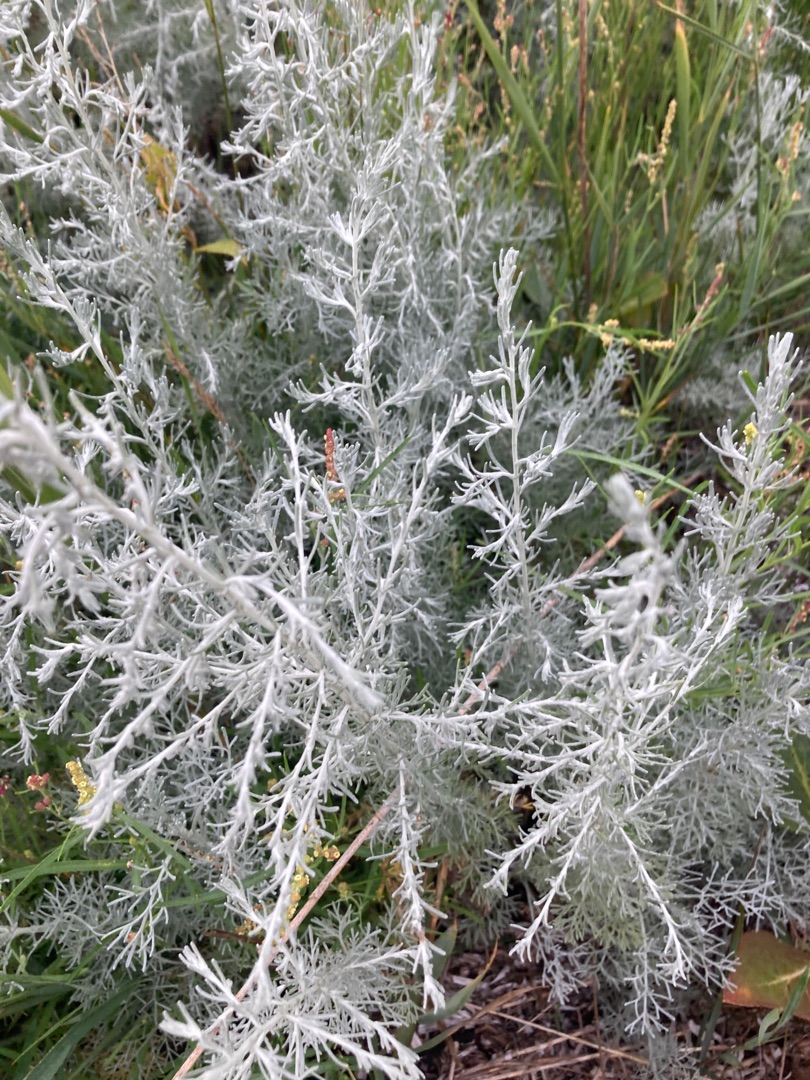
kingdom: Plantae
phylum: Tracheophyta
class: Magnoliopsida
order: Asterales
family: Asteraceae
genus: Artemisia
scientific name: Artemisia maritima
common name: Strandmalurt
